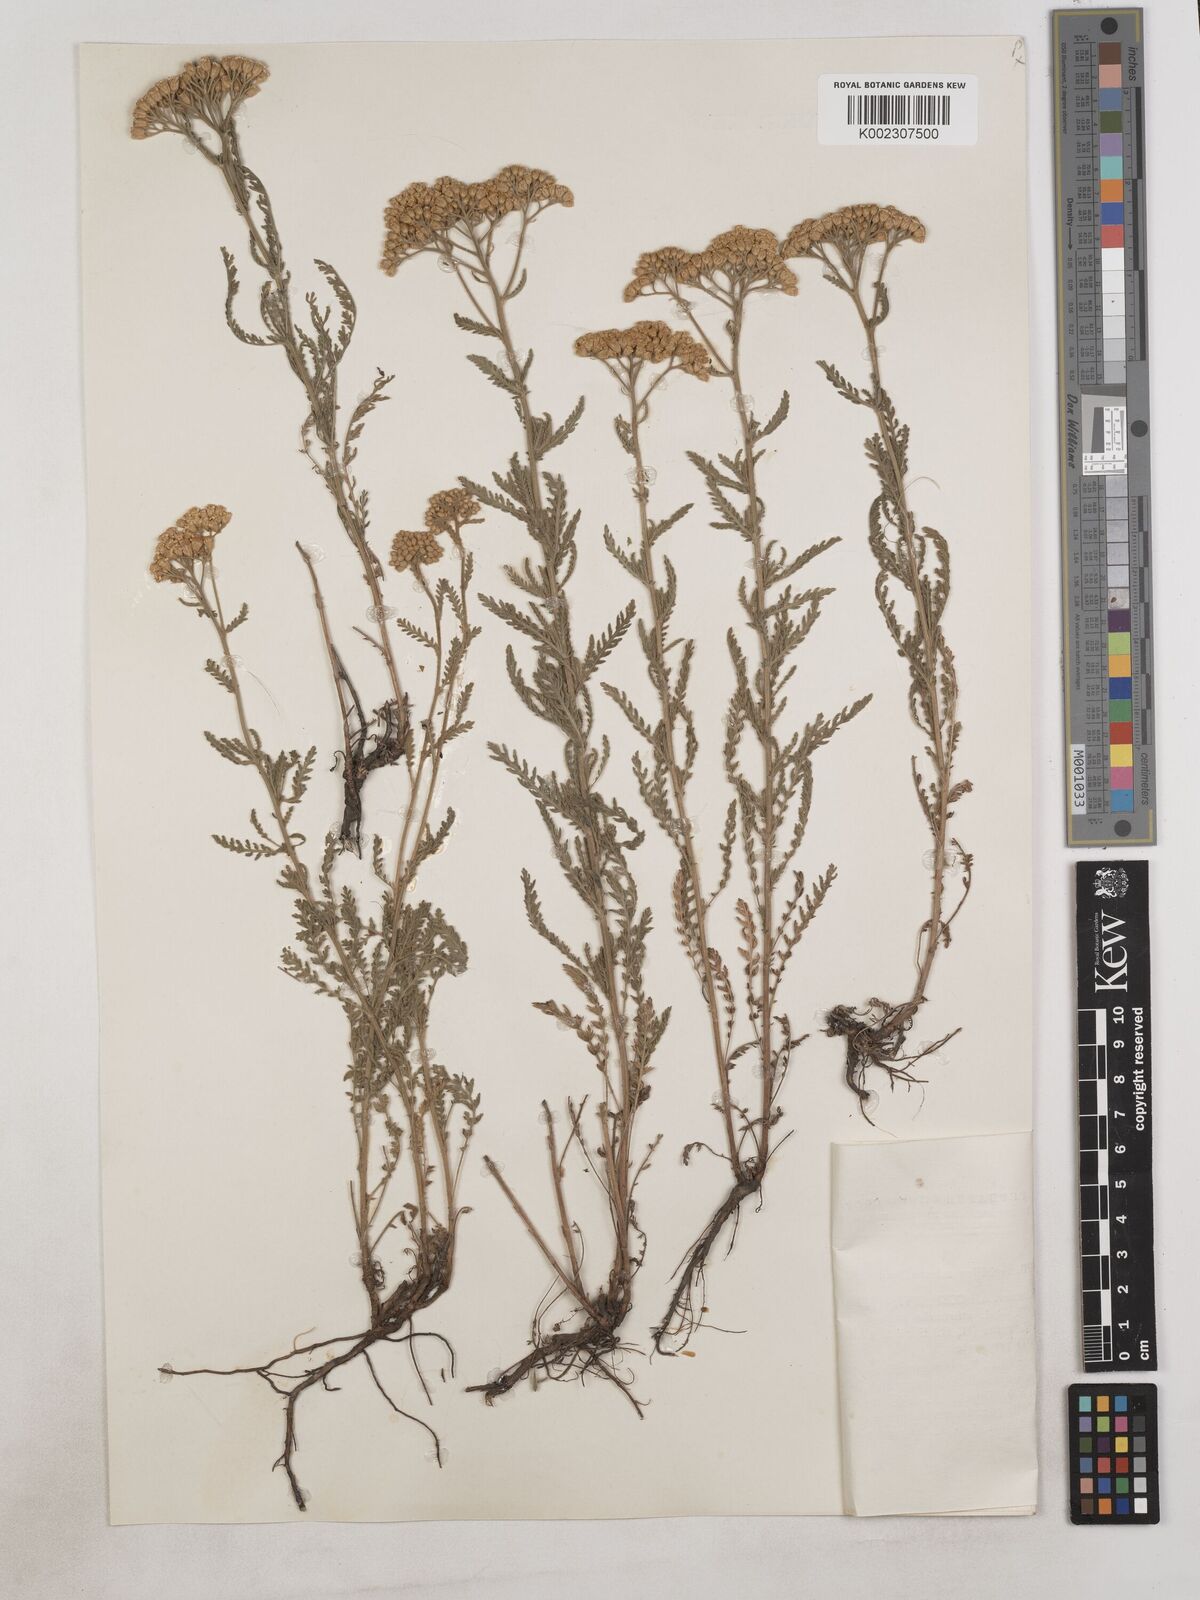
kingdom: Plantae
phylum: Tracheophyta
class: Magnoliopsida
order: Asterales
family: Asteraceae
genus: Achillea
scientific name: Achillea arabica
